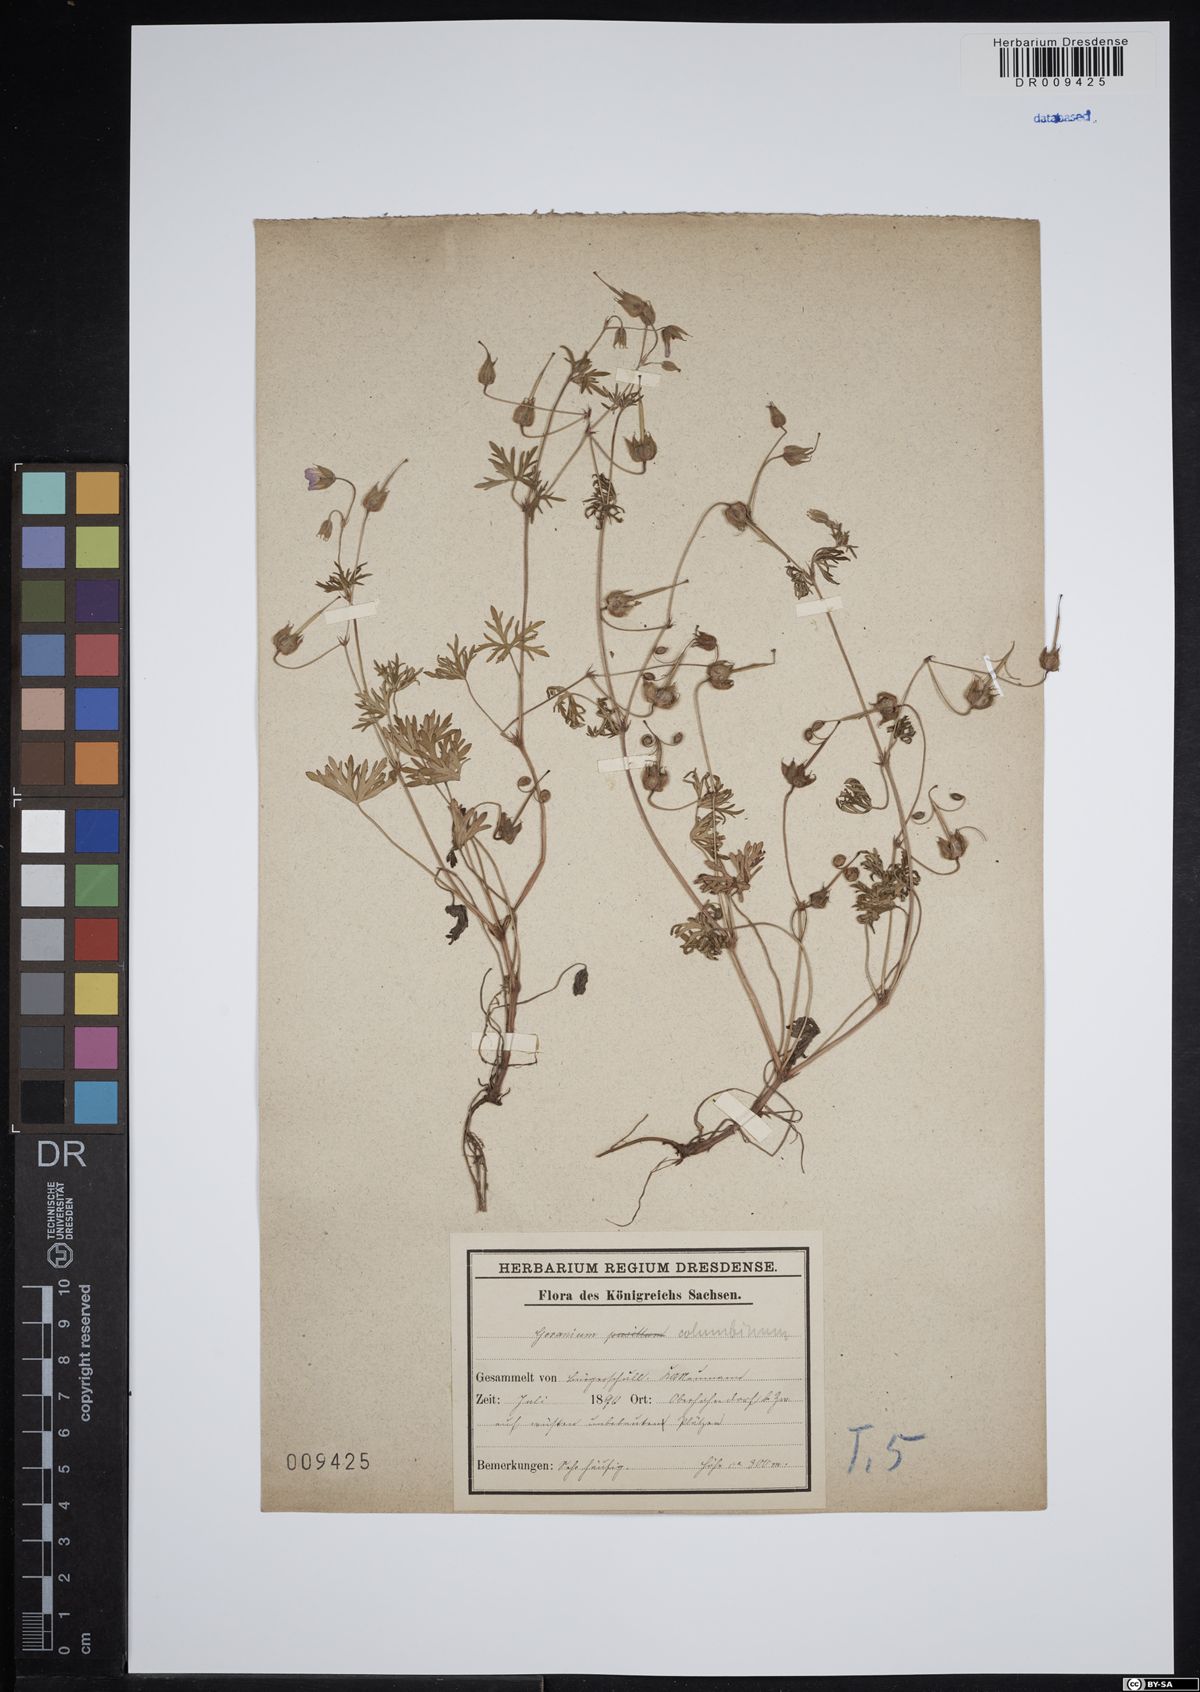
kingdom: Plantae
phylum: Tracheophyta
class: Magnoliopsida
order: Geraniales
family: Geraniaceae
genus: Geranium
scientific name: Geranium columbinum
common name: Long-stalked crane's-bill
